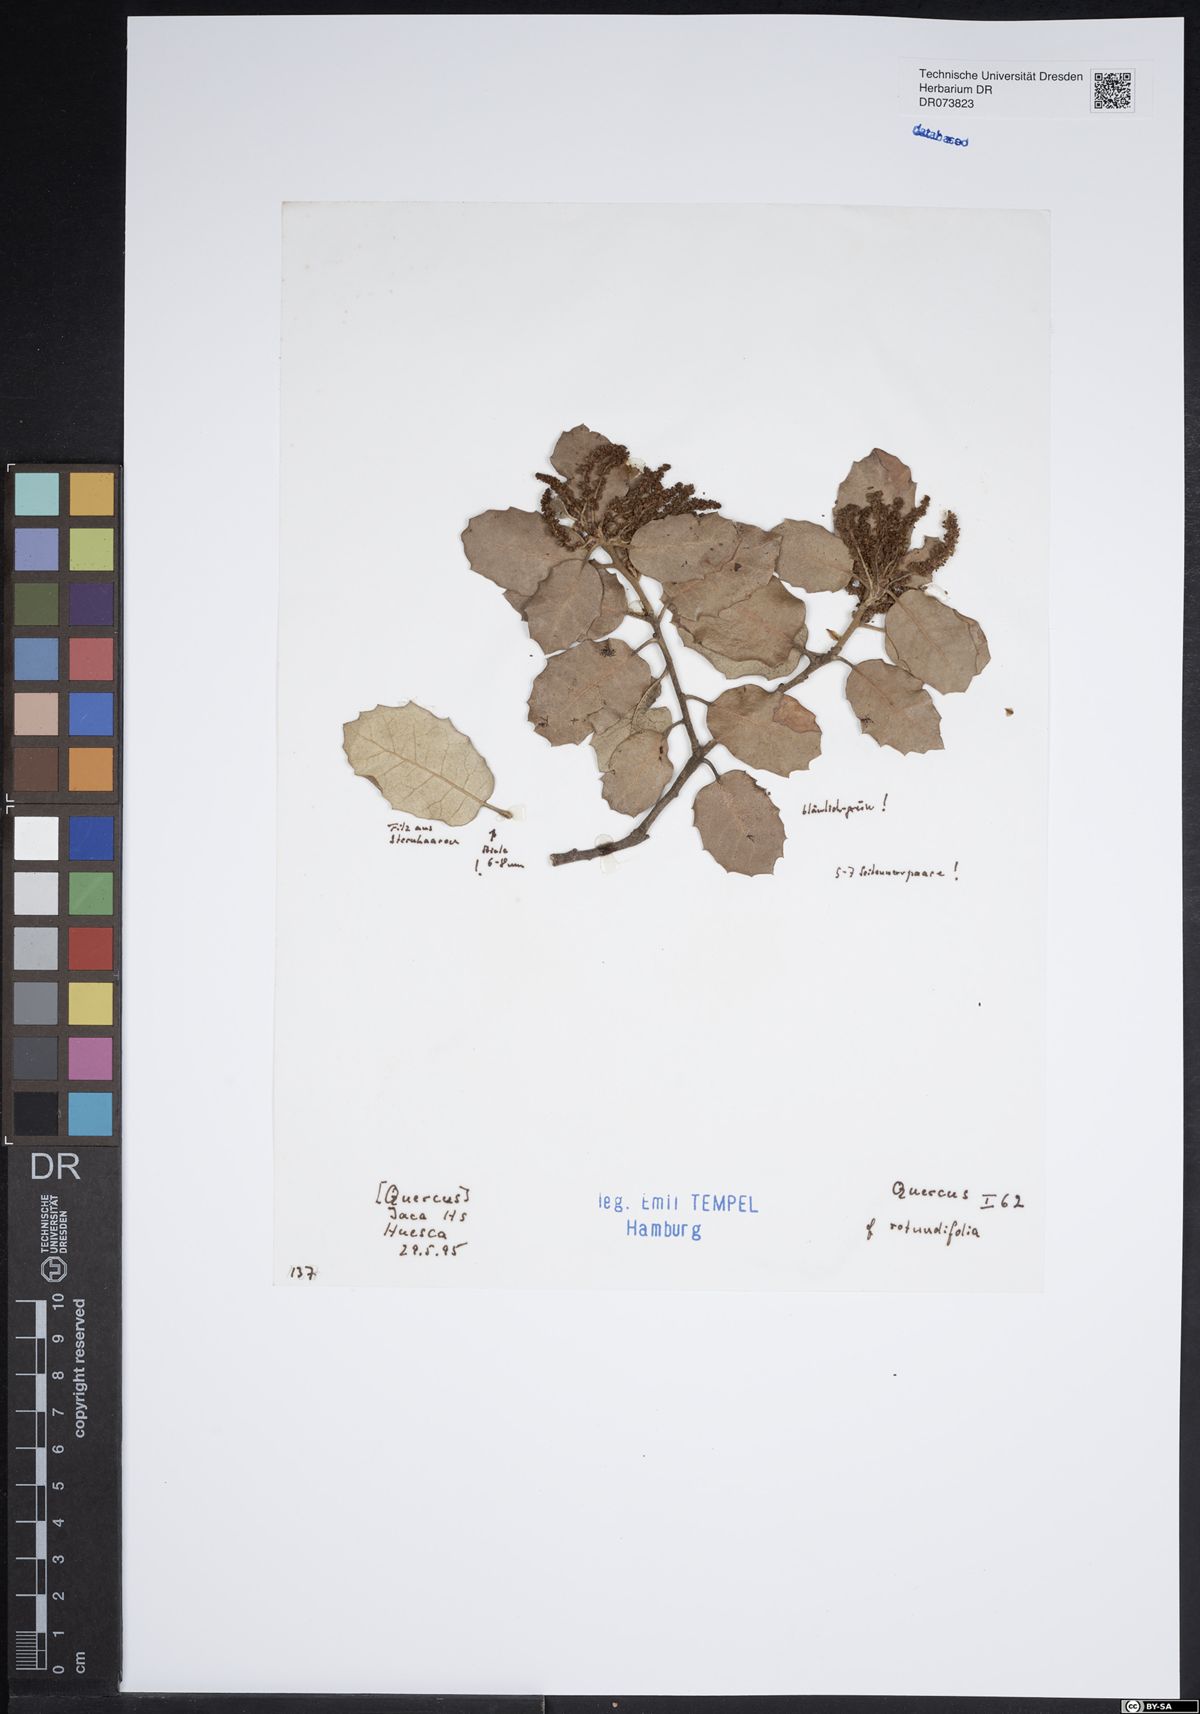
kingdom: Plantae
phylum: Tracheophyta
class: Magnoliopsida
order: Fagales
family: Fagaceae
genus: Quercus
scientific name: Quercus rotundifolia
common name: Holm oak
